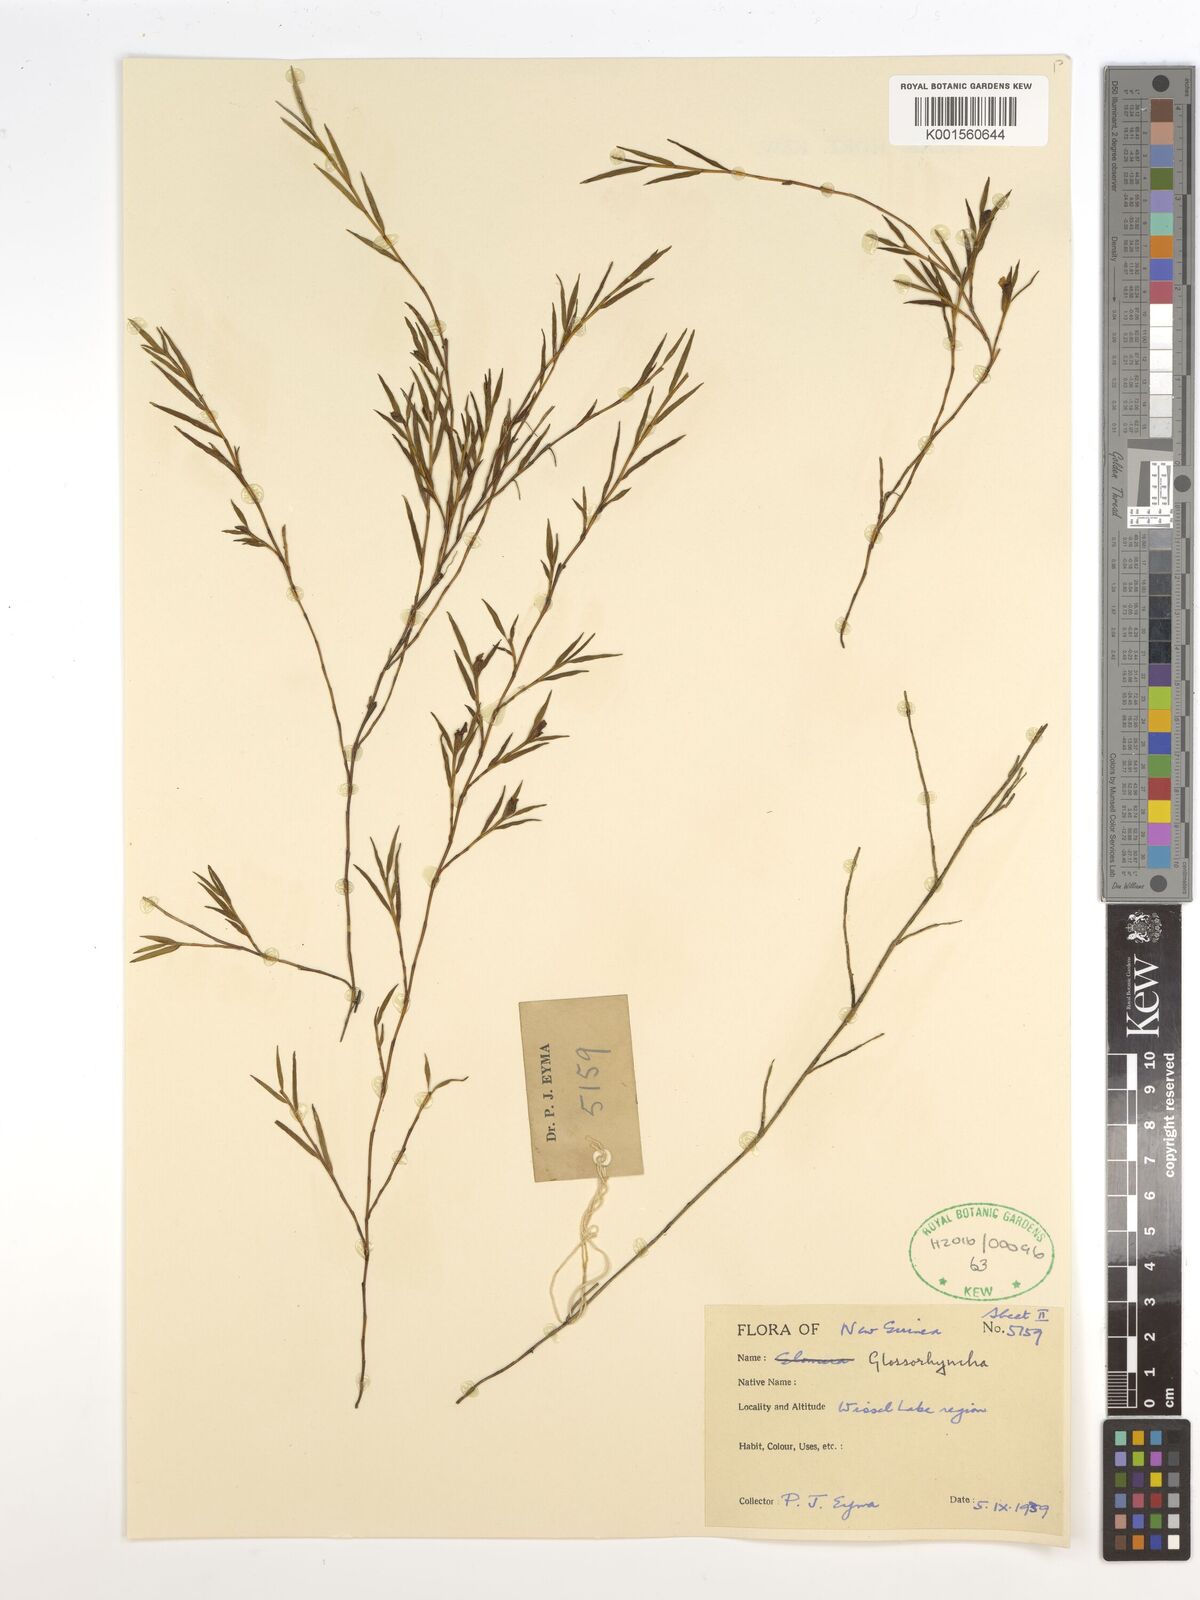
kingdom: Plantae
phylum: Tracheophyta
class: Liliopsida
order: Asparagales
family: Orchidaceae
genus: Glomera
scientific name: Glomera
